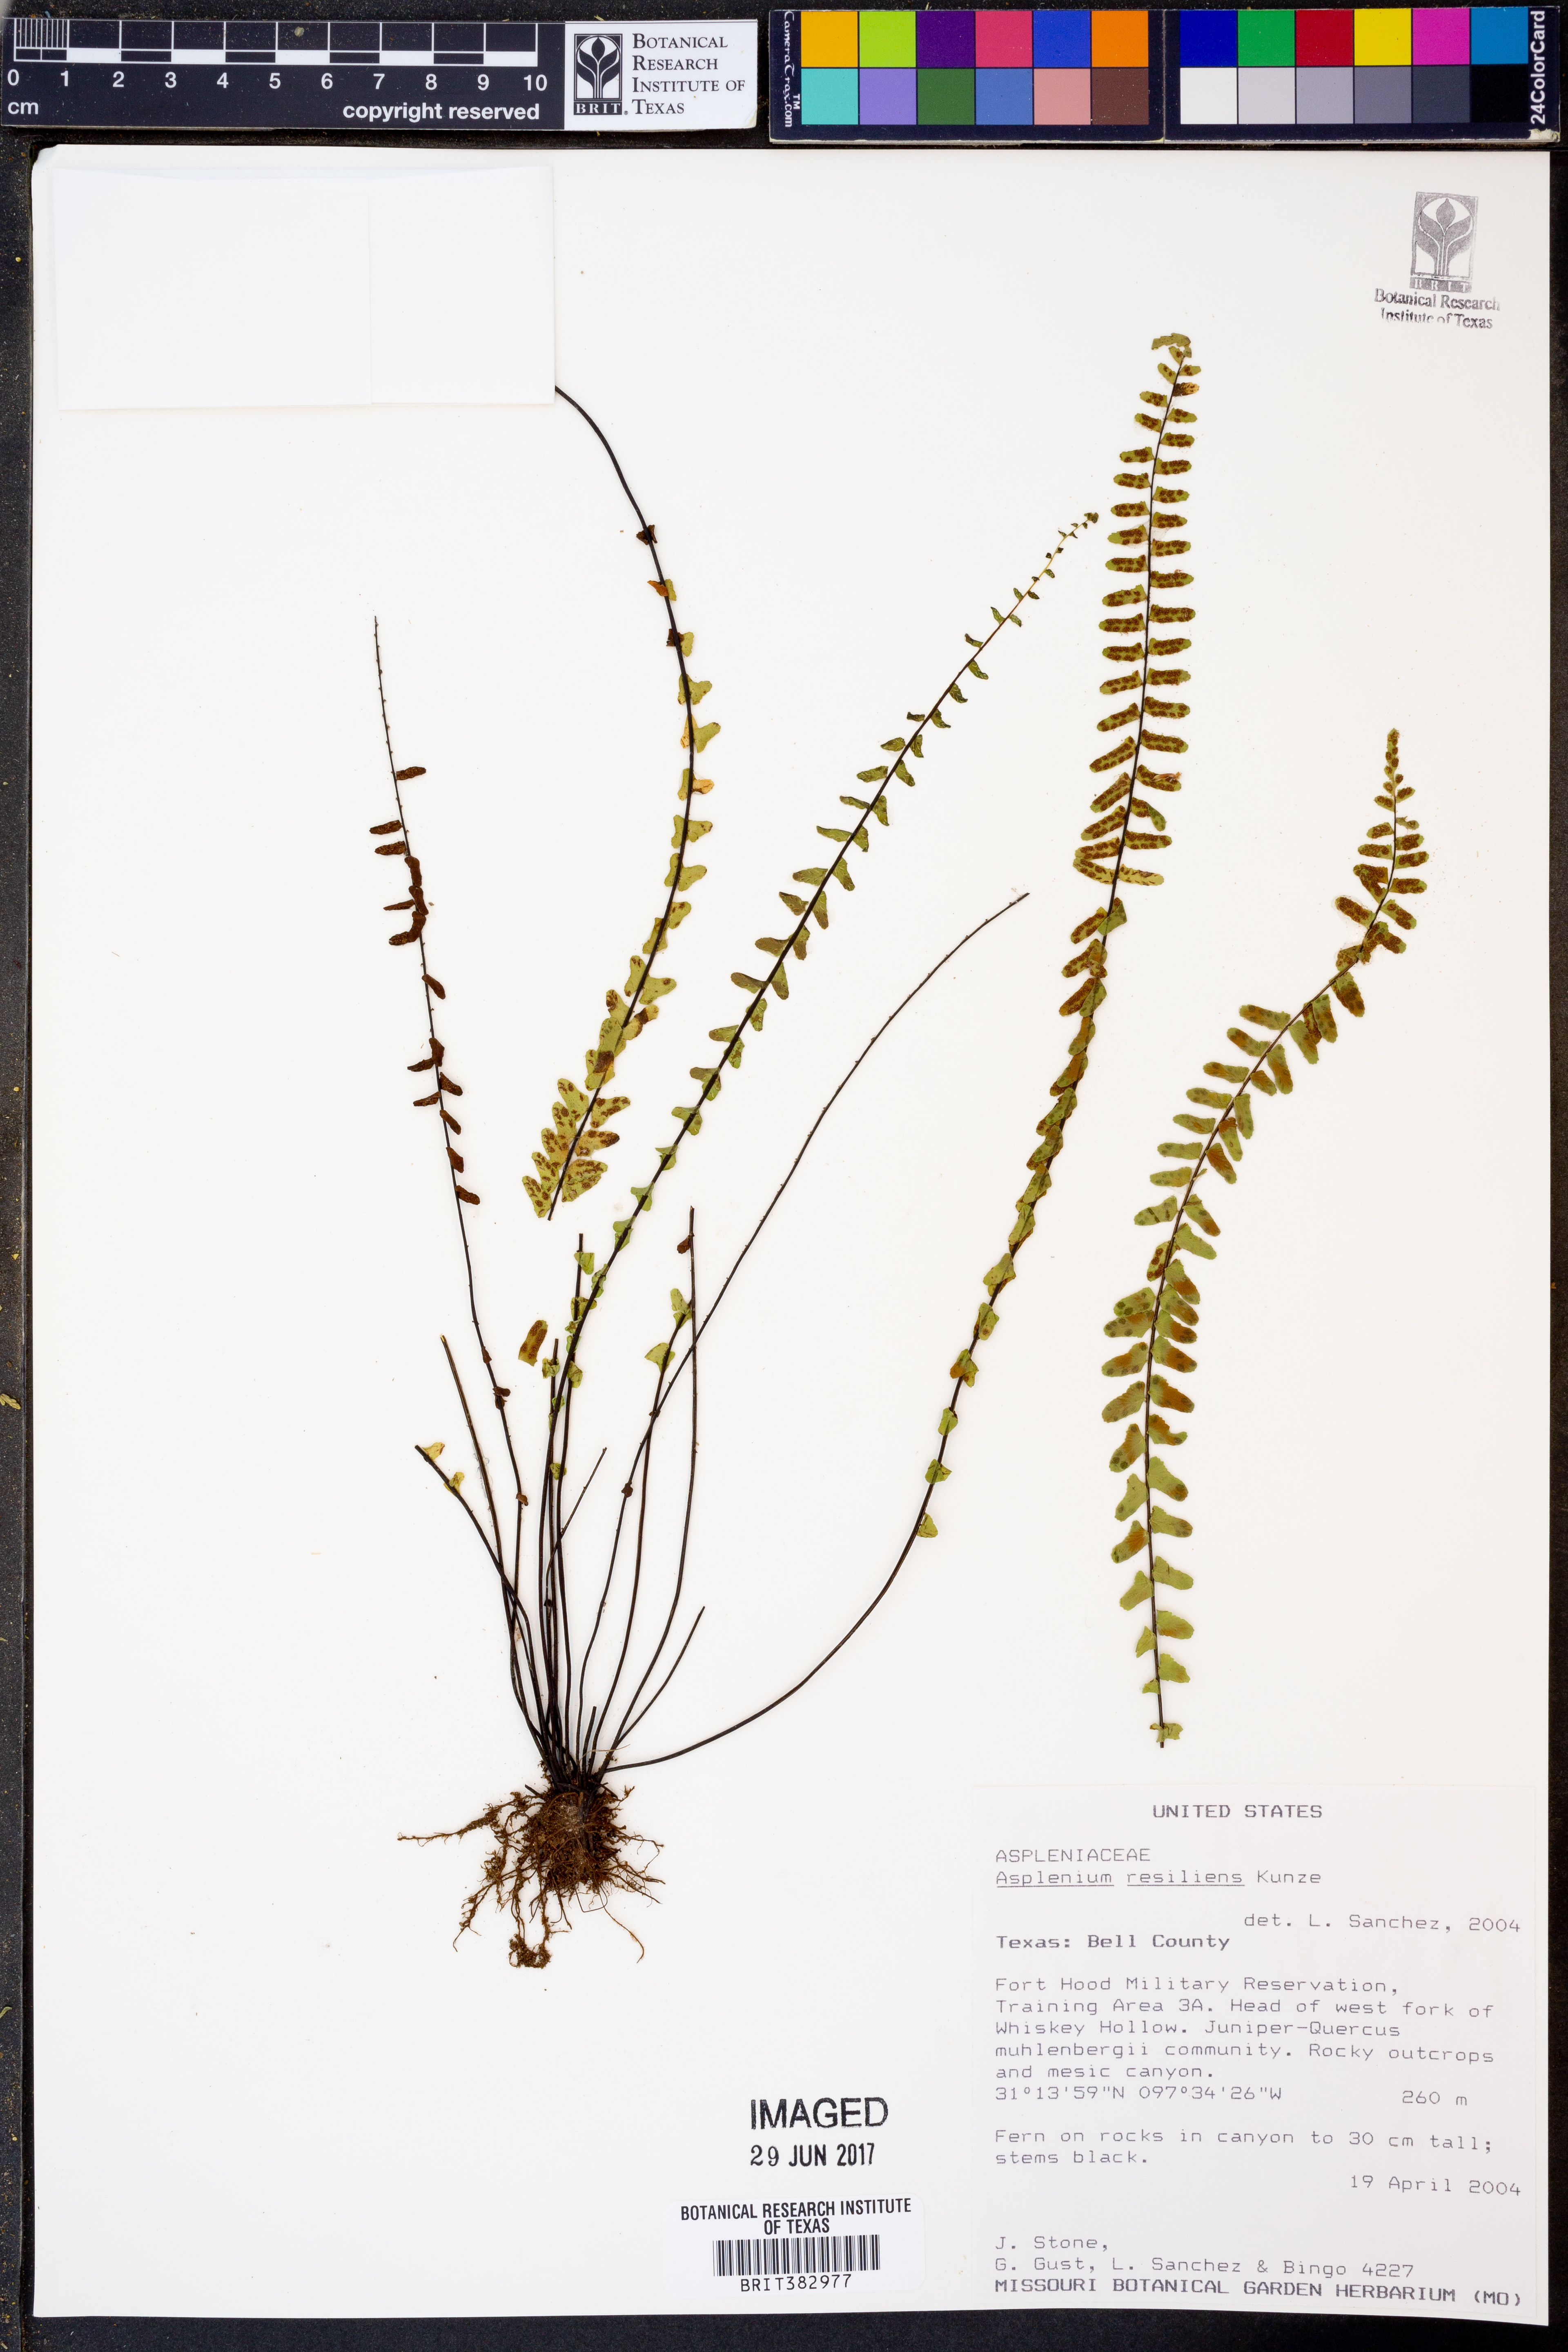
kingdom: Plantae
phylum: Tracheophyta
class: Polypodiopsida
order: Polypodiales
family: Aspleniaceae
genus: Asplenium
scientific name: Asplenium resiliens
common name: Blackstem spleenwort
